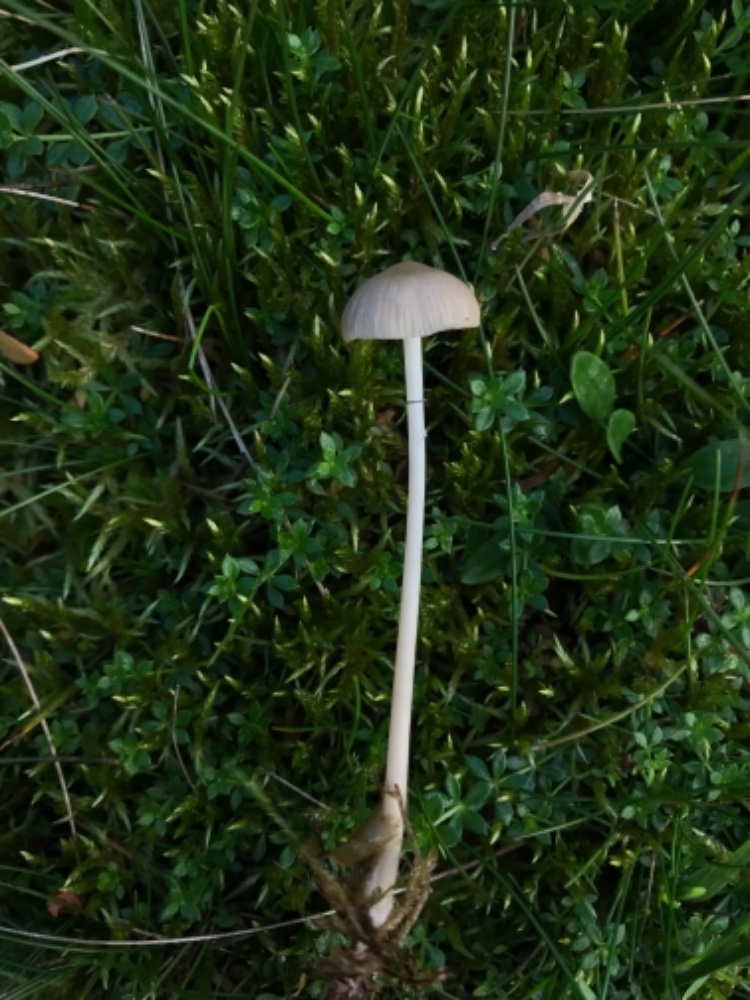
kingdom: Fungi
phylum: Basidiomycota
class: Agaricomycetes
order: Agaricales
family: Mycenaceae
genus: Mycena
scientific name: Mycena epipterygia
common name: Yellowleg bonnet
